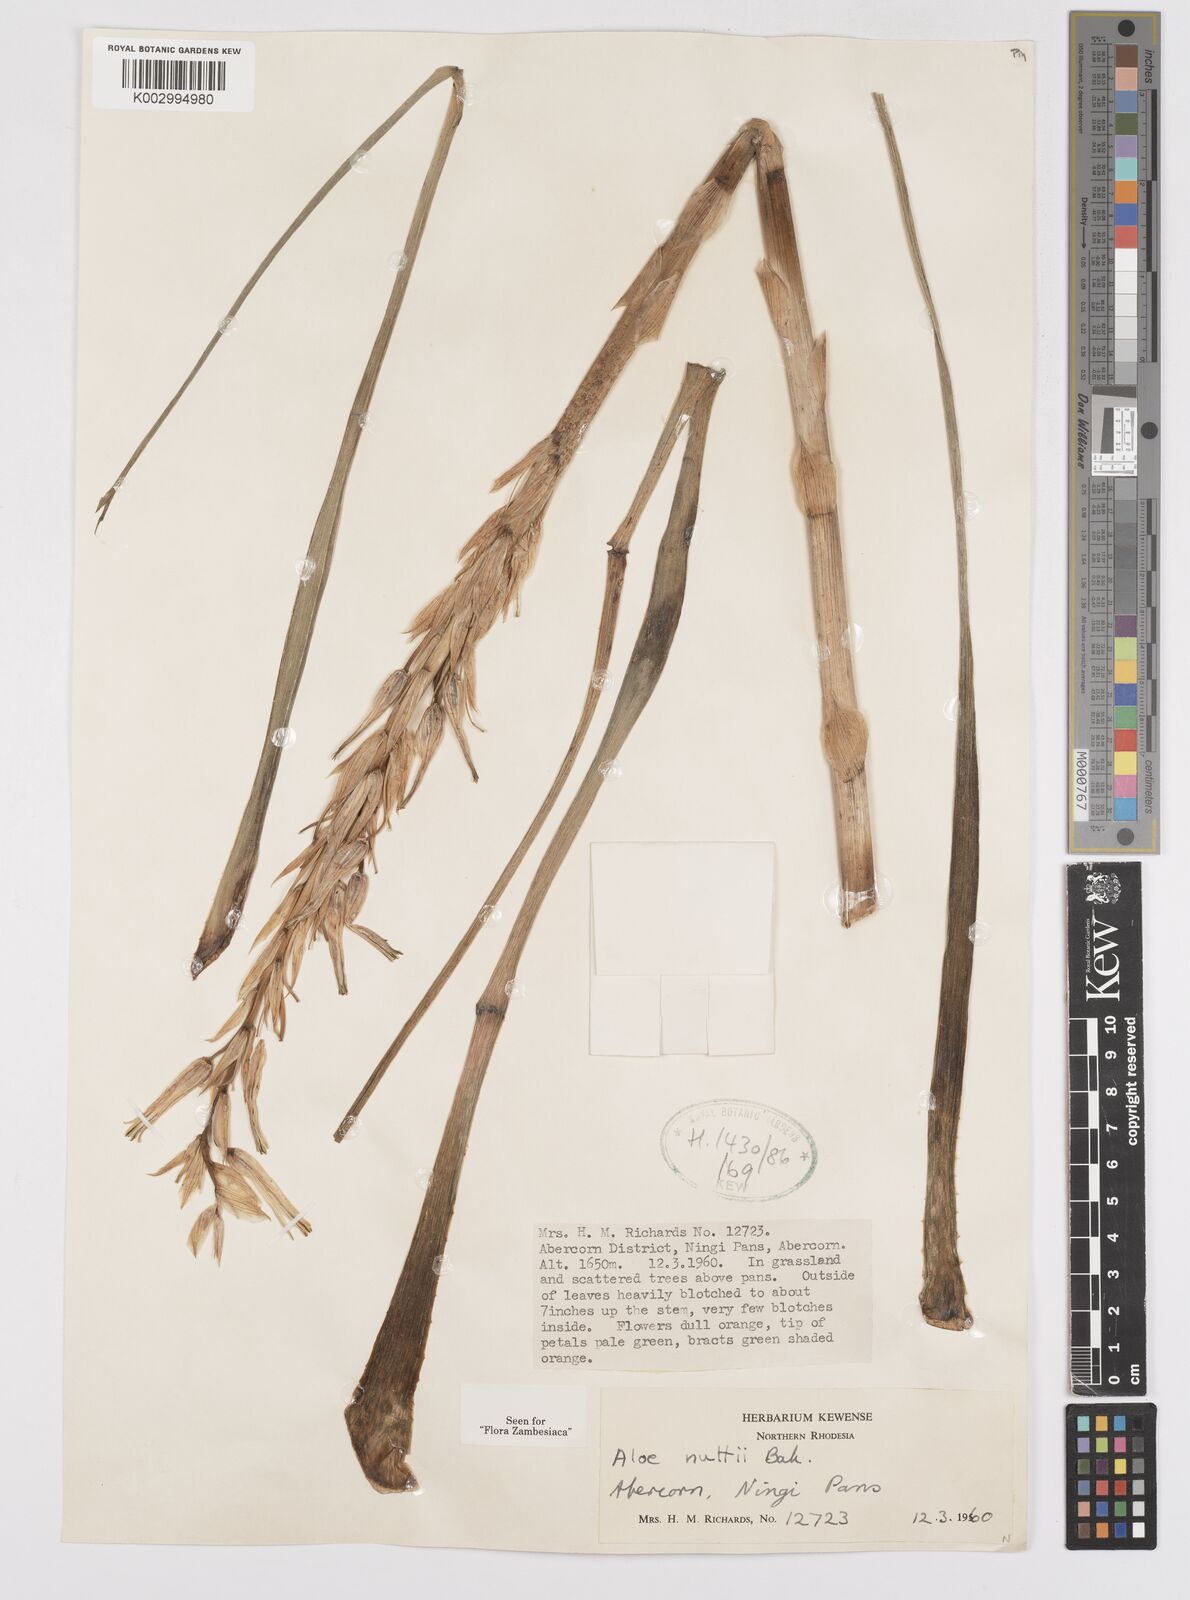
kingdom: Plantae
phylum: Tracheophyta
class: Liliopsida
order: Asparagales
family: Asphodelaceae
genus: Aloe
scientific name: Aloe nuttii
